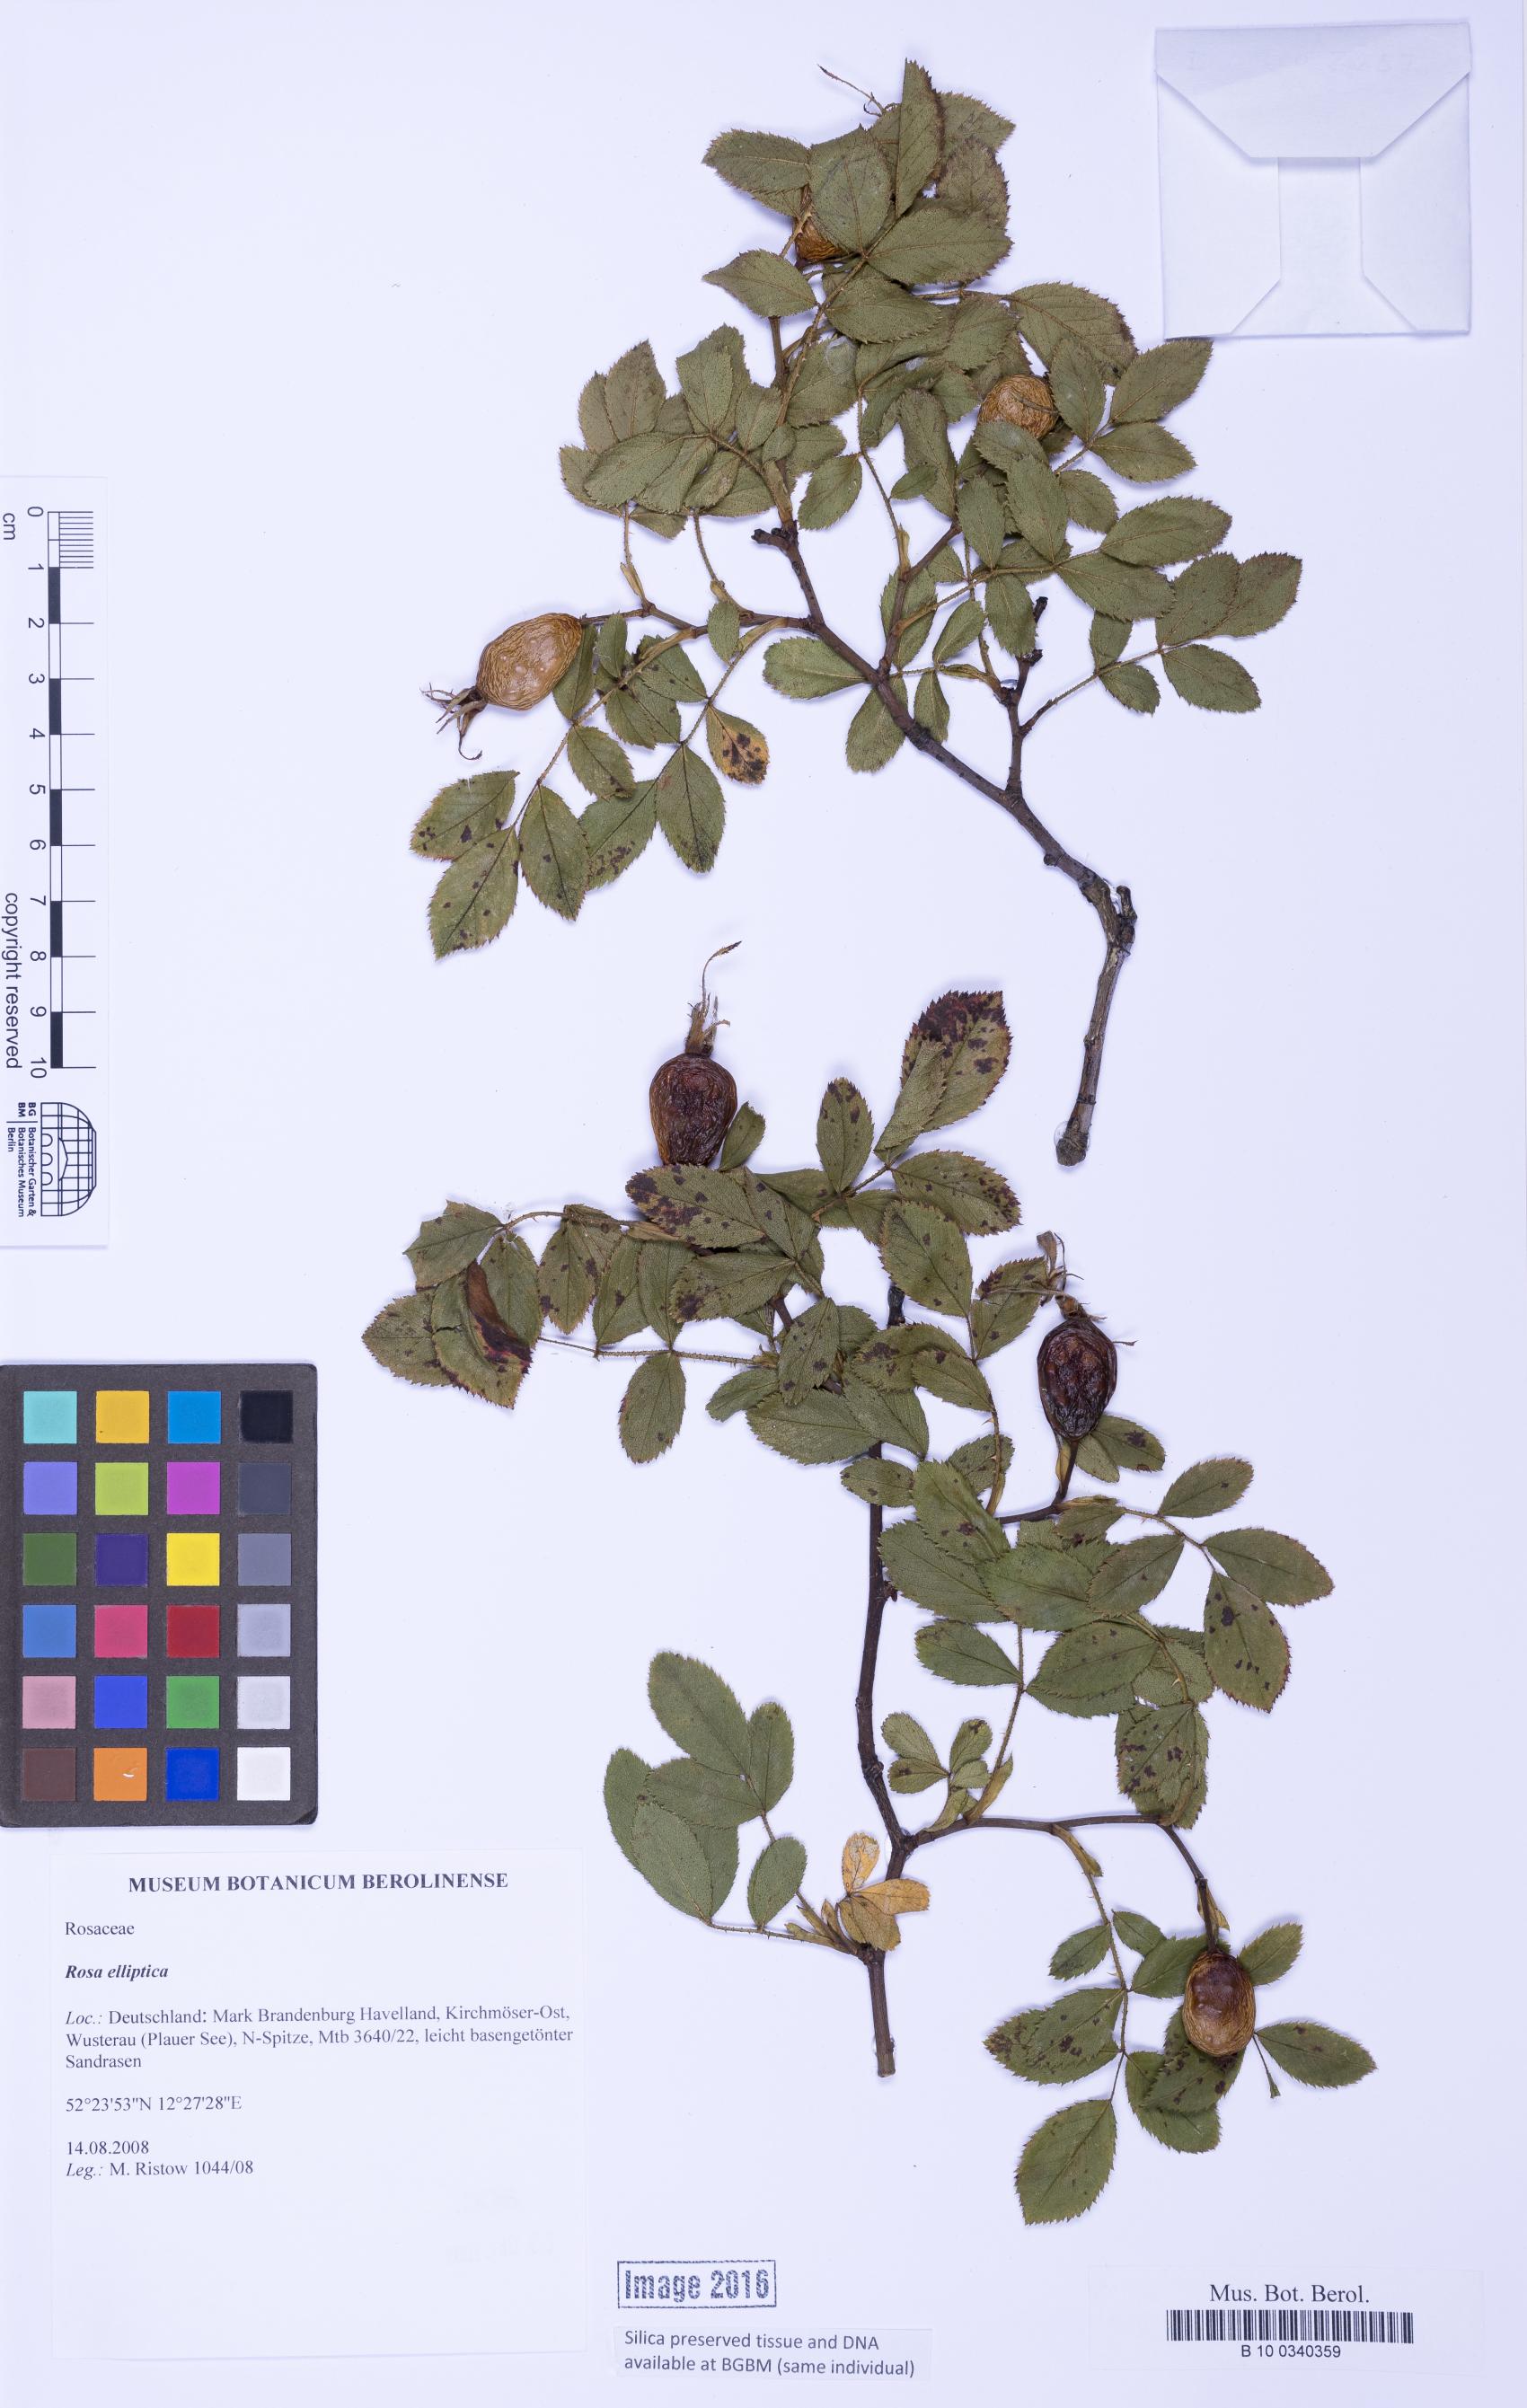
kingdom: Plantae
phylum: Tracheophyta
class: Magnoliopsida
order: Rosales
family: Rosaceae
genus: Rosa
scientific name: Rosa inodora
